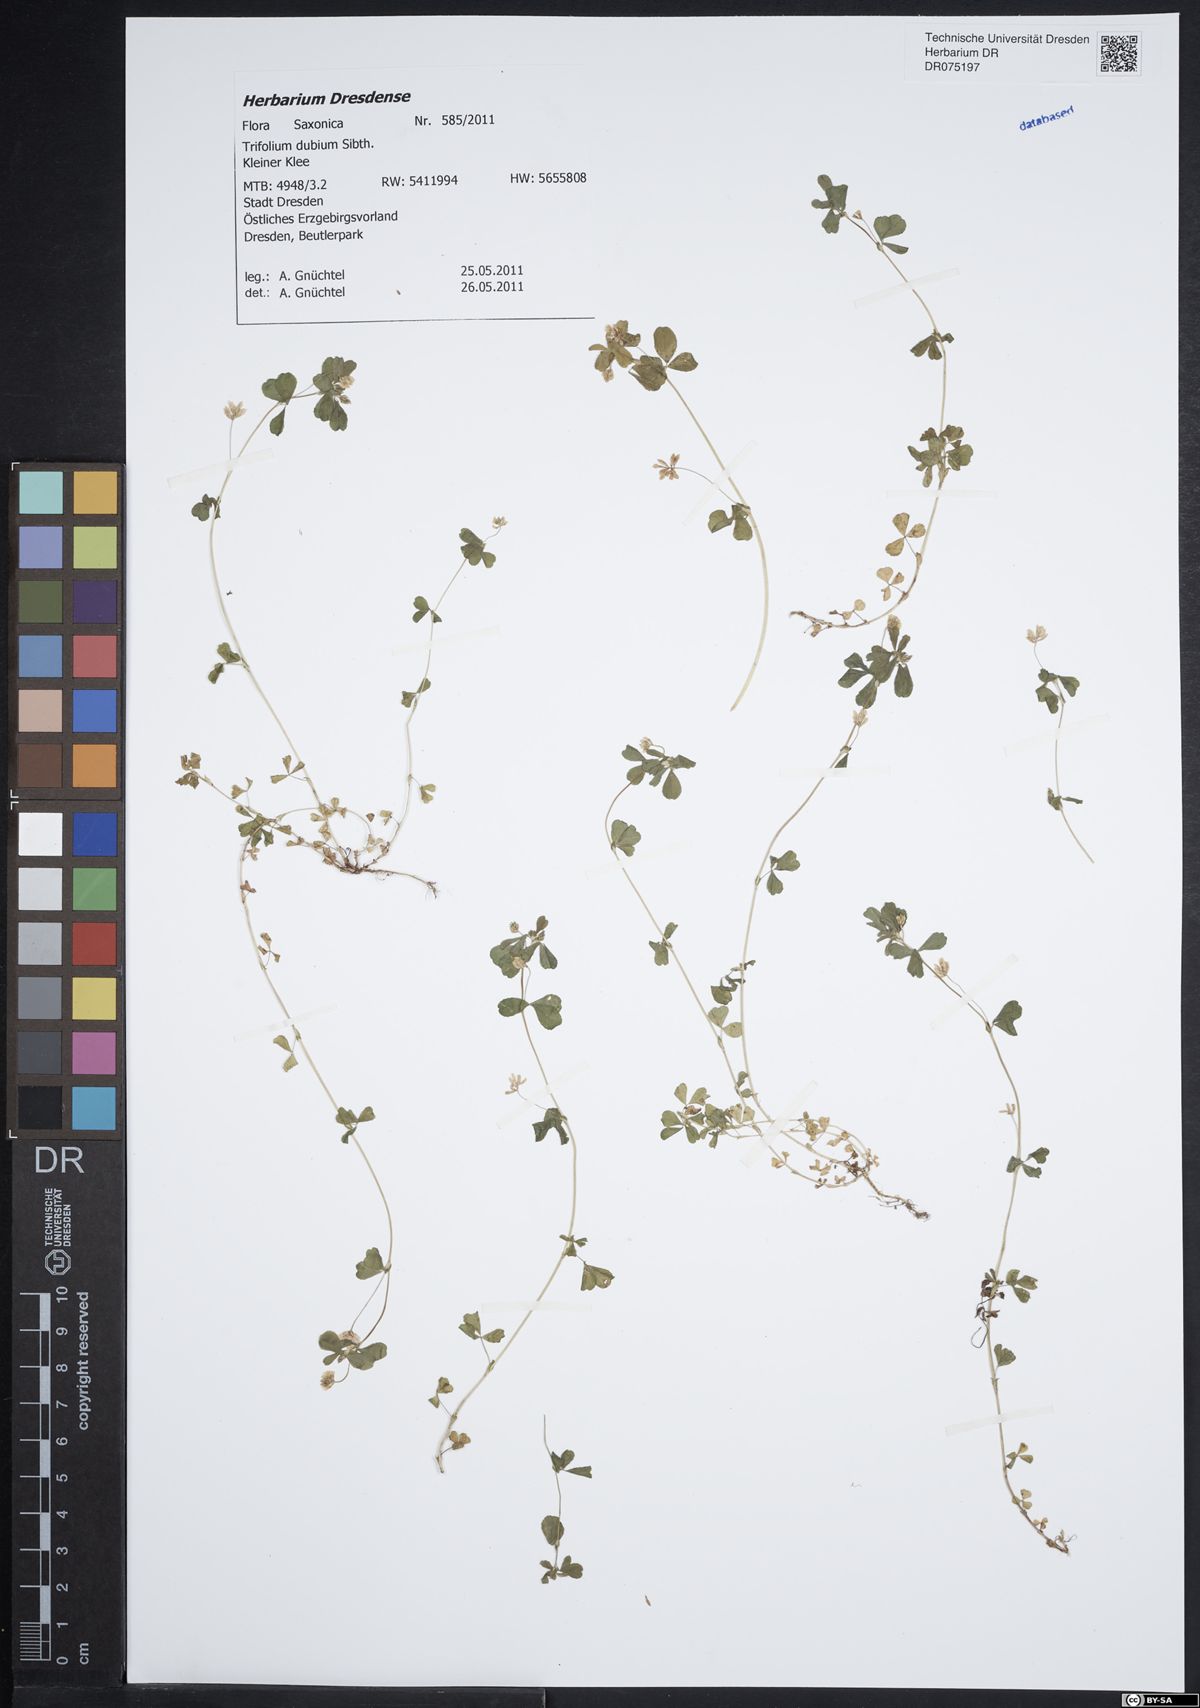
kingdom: Plantae
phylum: Tracheophyta
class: Magnoliopsida
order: Fabales
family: Fabaceae
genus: Trifolium
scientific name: Trifolium dubium
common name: Suckling clover
